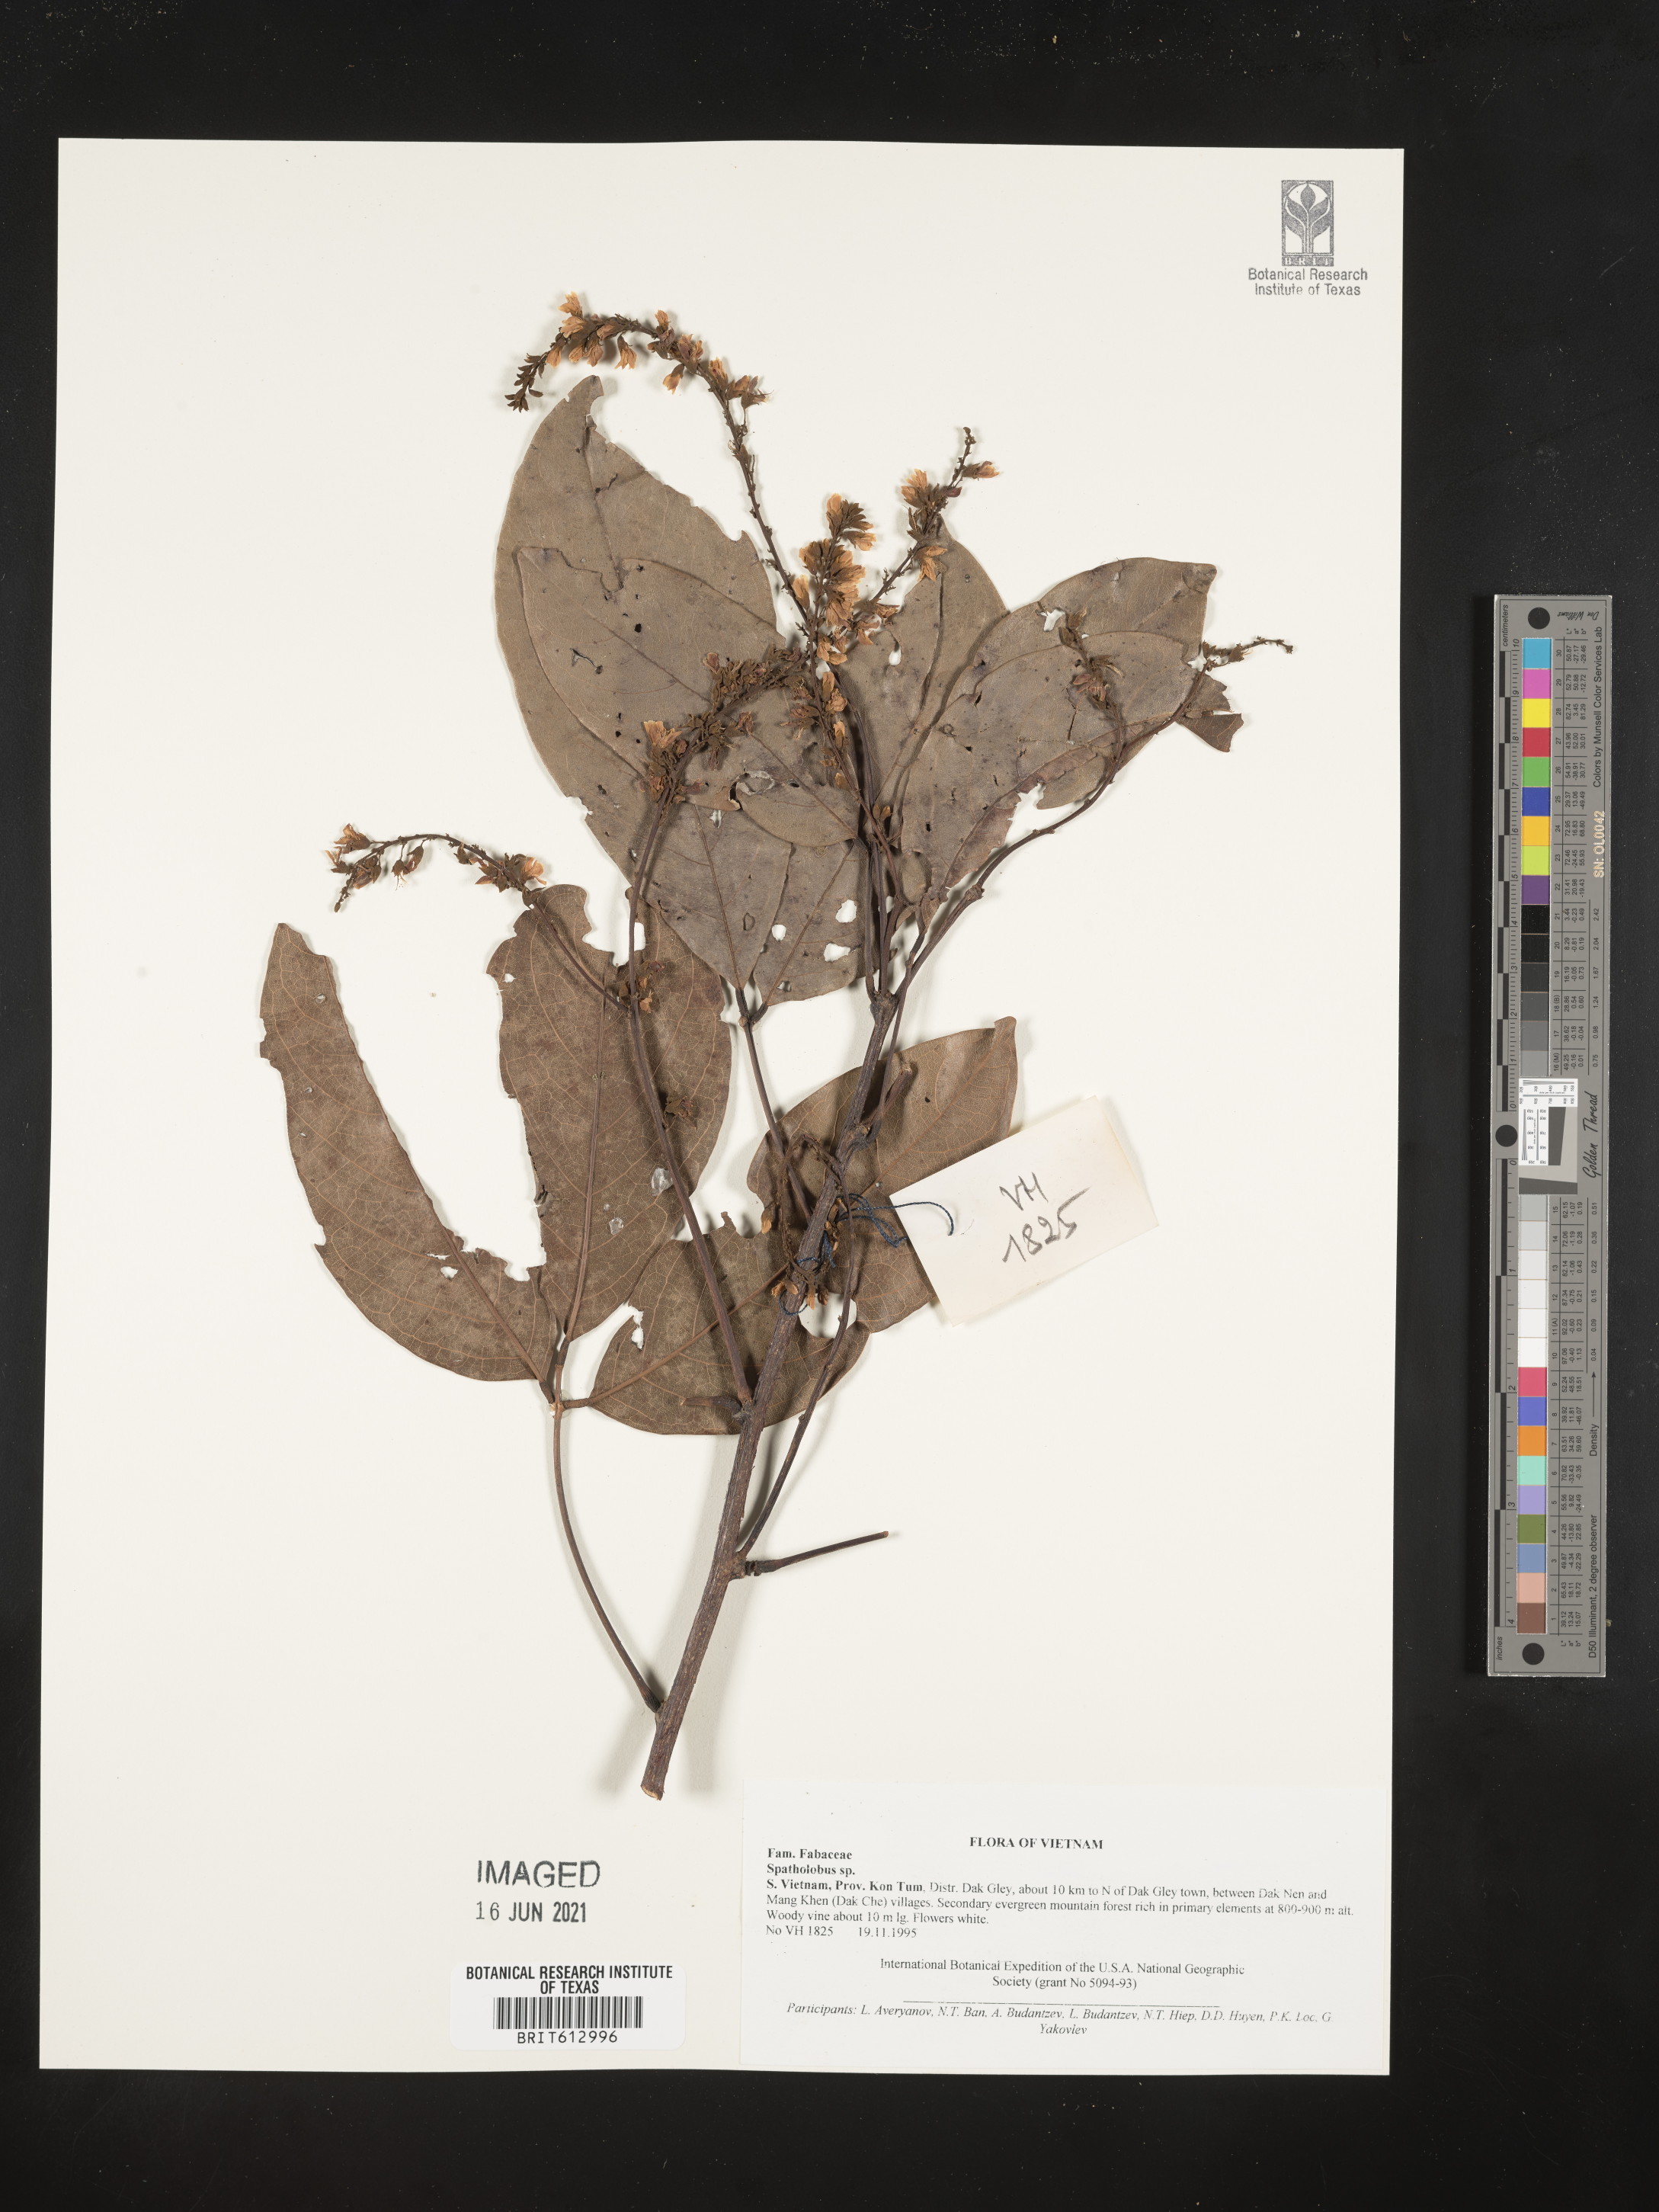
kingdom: Plantae
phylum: Tracheophyta
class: Magnoliopsida
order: Fabales
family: Fabaceae
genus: Spatholobus
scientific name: Spatholobus
